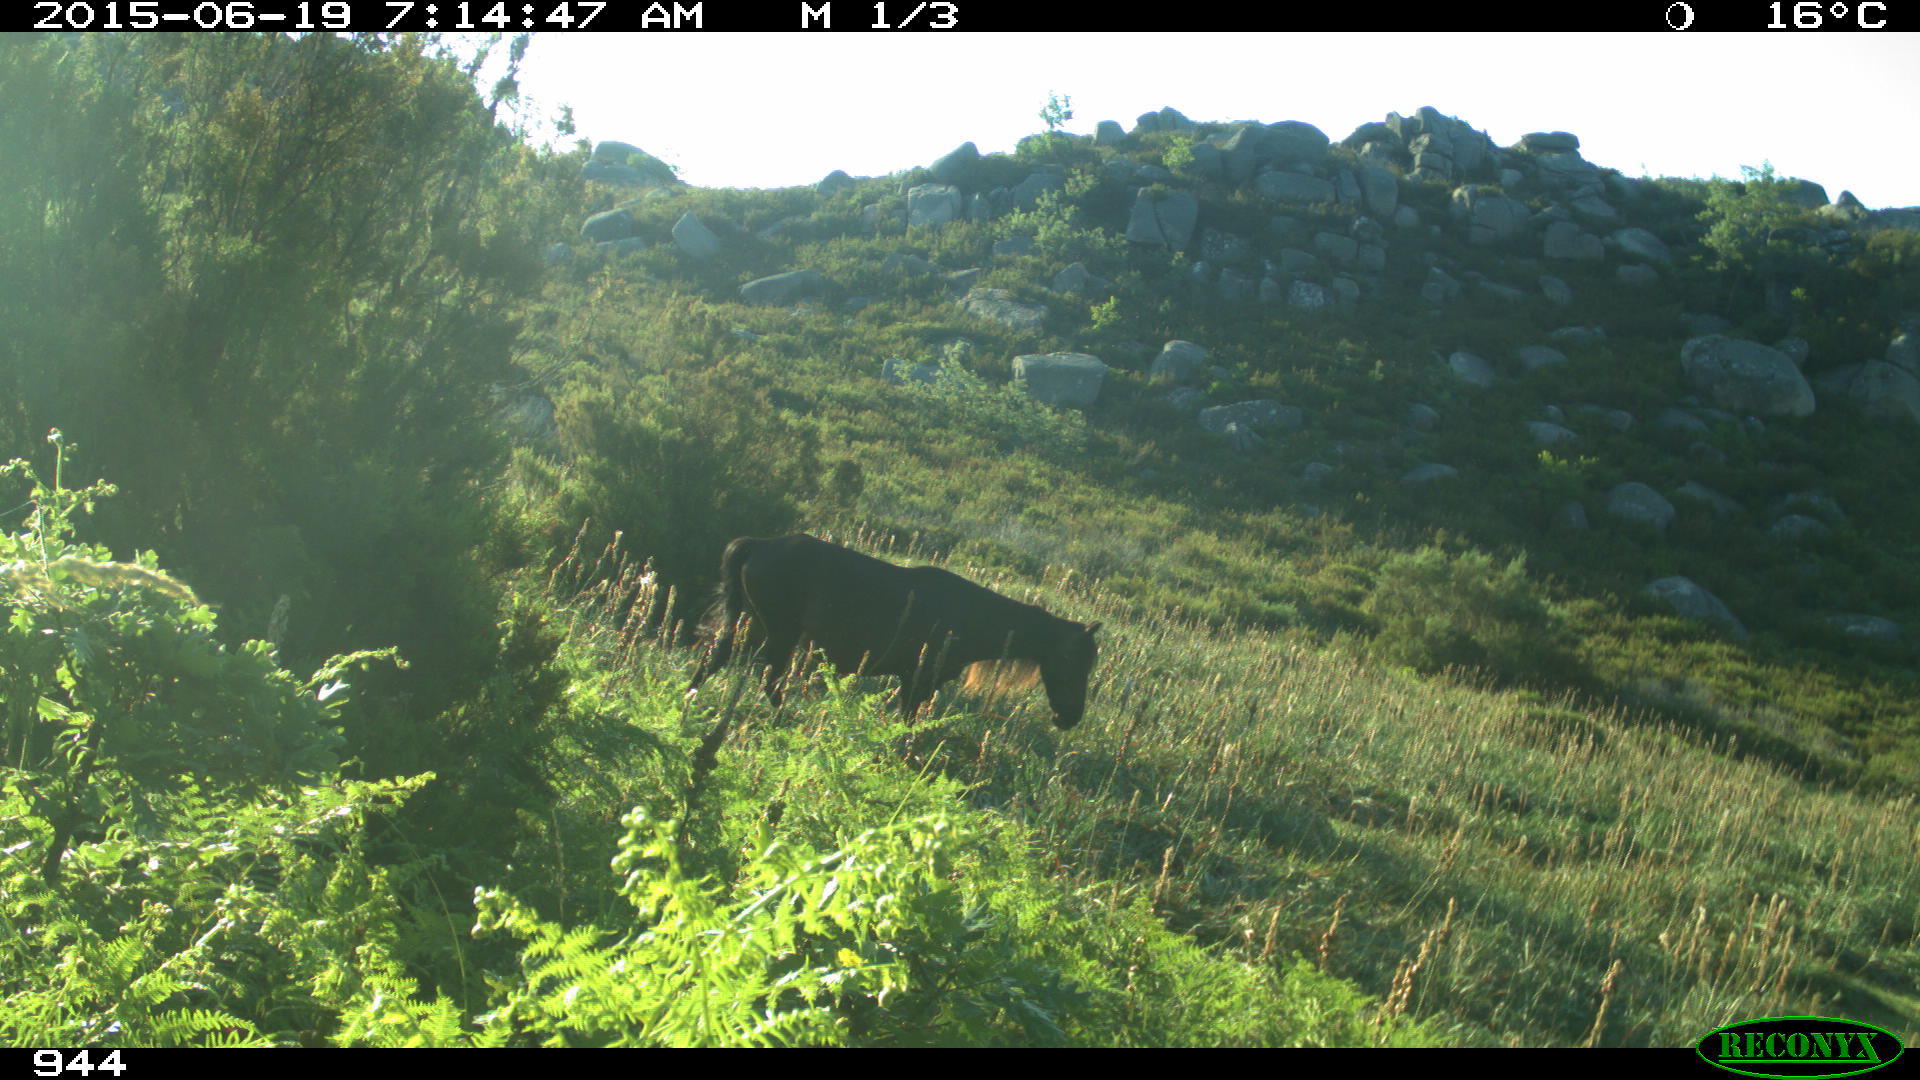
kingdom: Animalia
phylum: Chordata
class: Mammalia
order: Perissodactyla
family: Equidae
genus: Equus
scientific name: Equus caballus
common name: Horse
